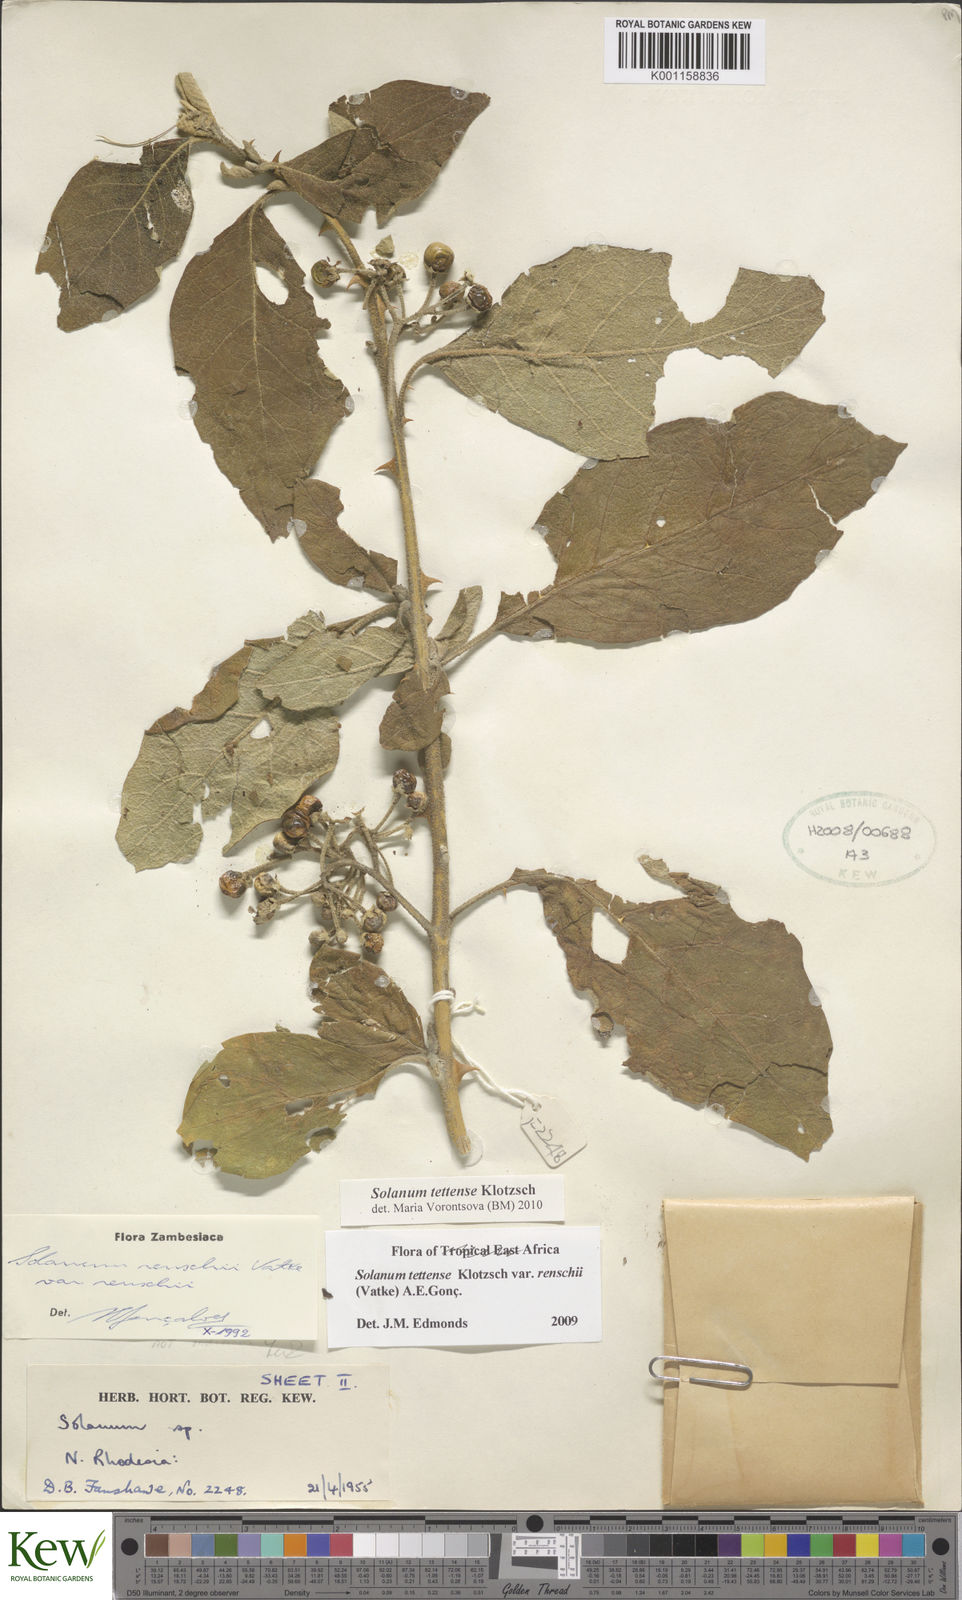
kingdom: Plantae
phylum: Tracheophyta
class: Magnoliopsida
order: Solanales
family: Solanaceae
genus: Solanum
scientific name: Solanum tettense
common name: Mozambique bitter apple
